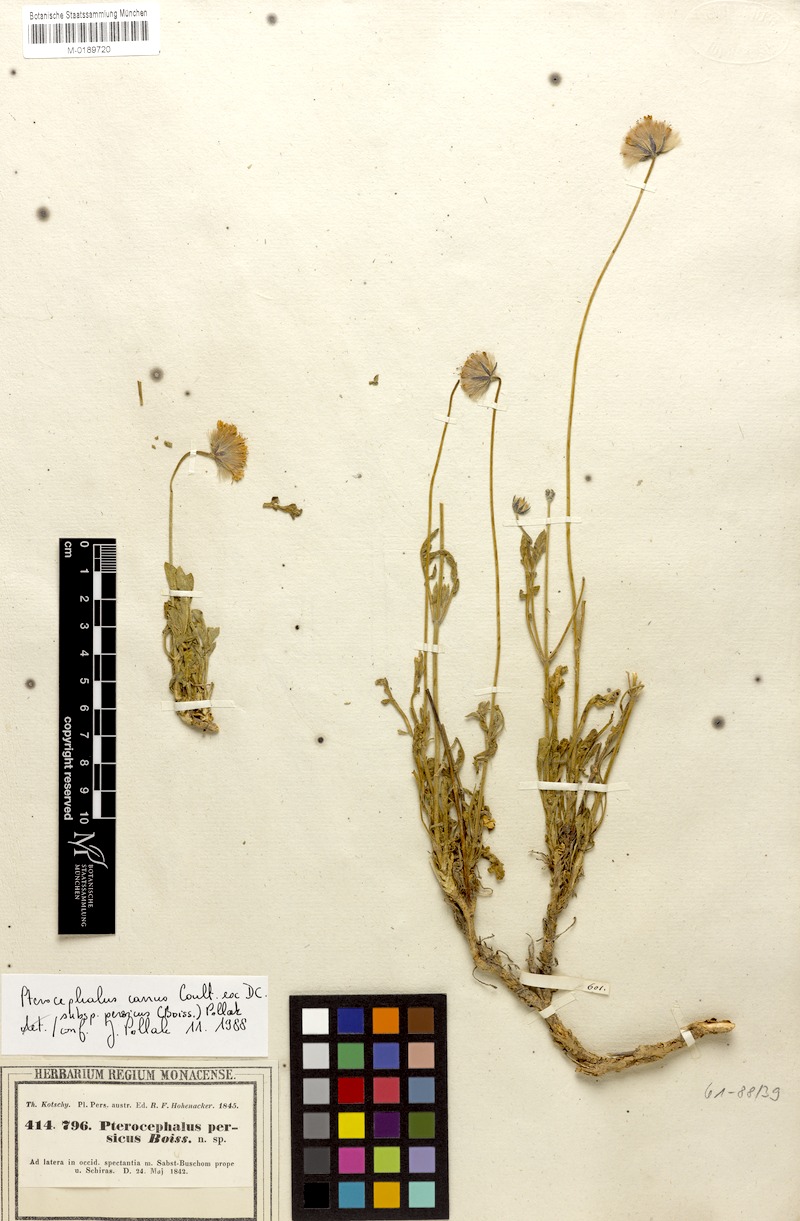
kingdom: Plantae
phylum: Tracheophyta
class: Magnoliopsida
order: Dipsacales
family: Caprifoliaceae
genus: Pterocephalus
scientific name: Pterocephalus persicus
